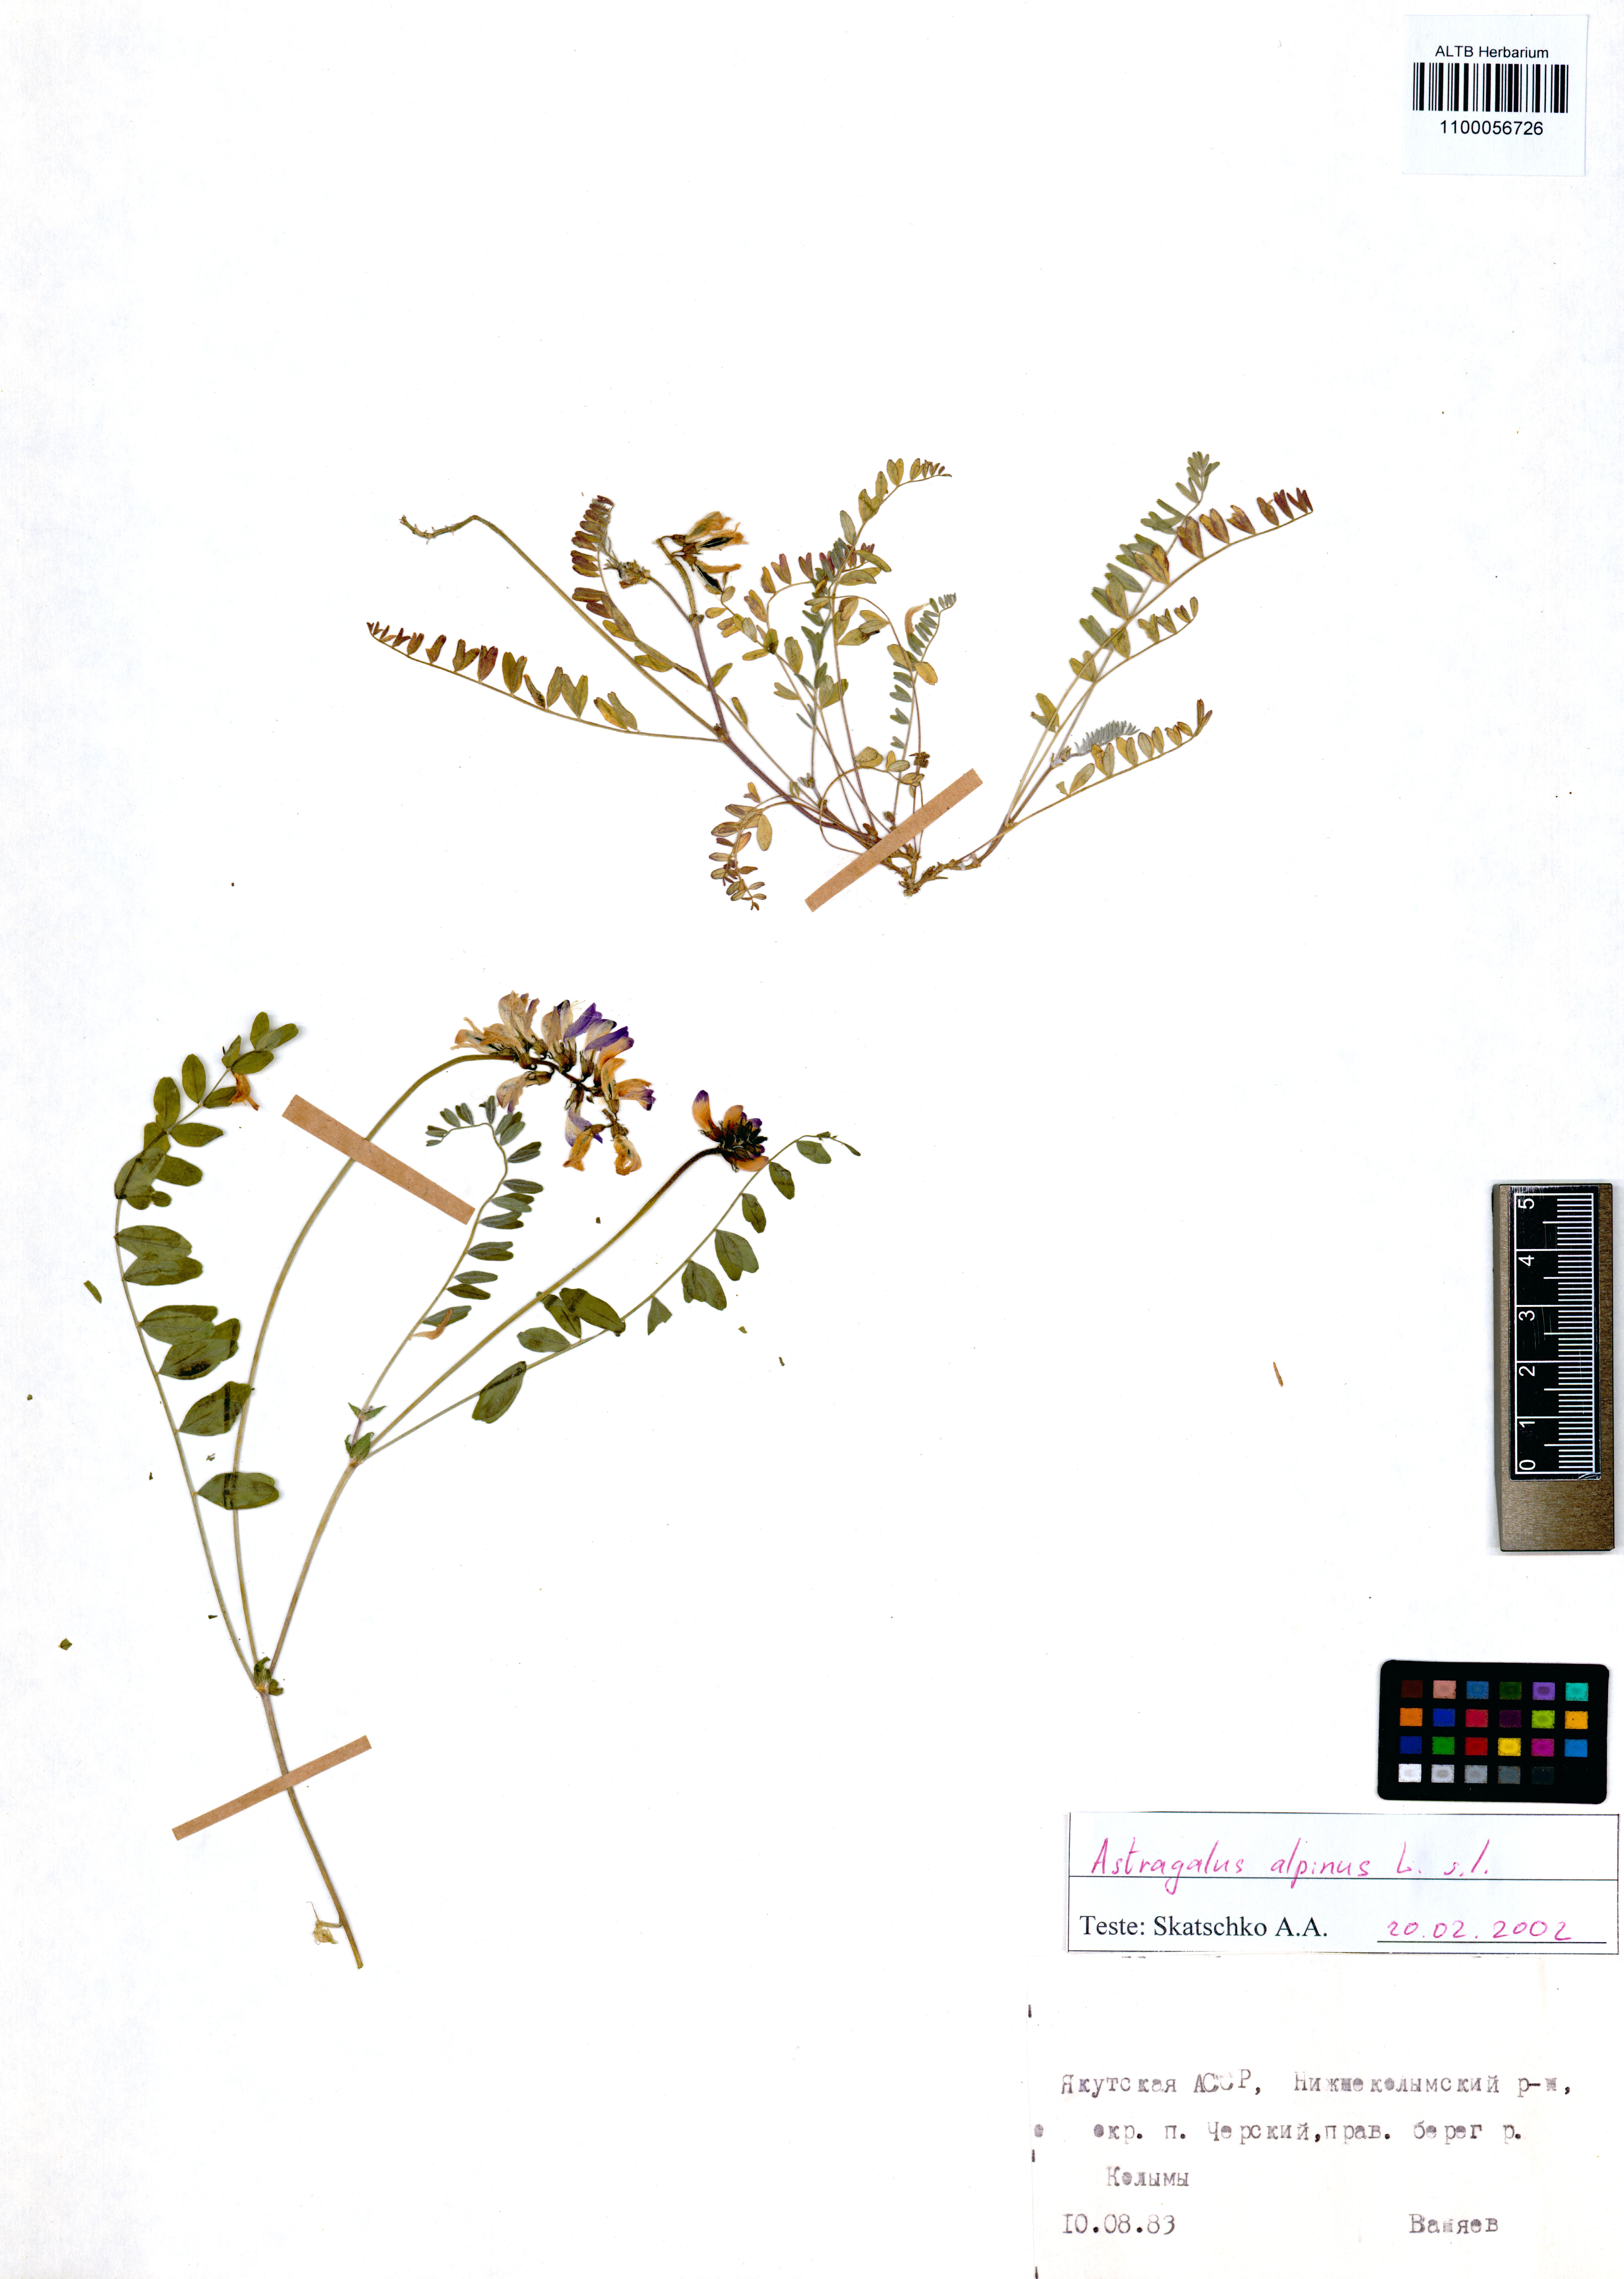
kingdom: Plantae
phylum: Tracheophyta
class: Magnoliopsida
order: Fabales
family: Fabaceae
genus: Astragalus
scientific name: Astragalus alpinus
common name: Alpine milk-vetch
